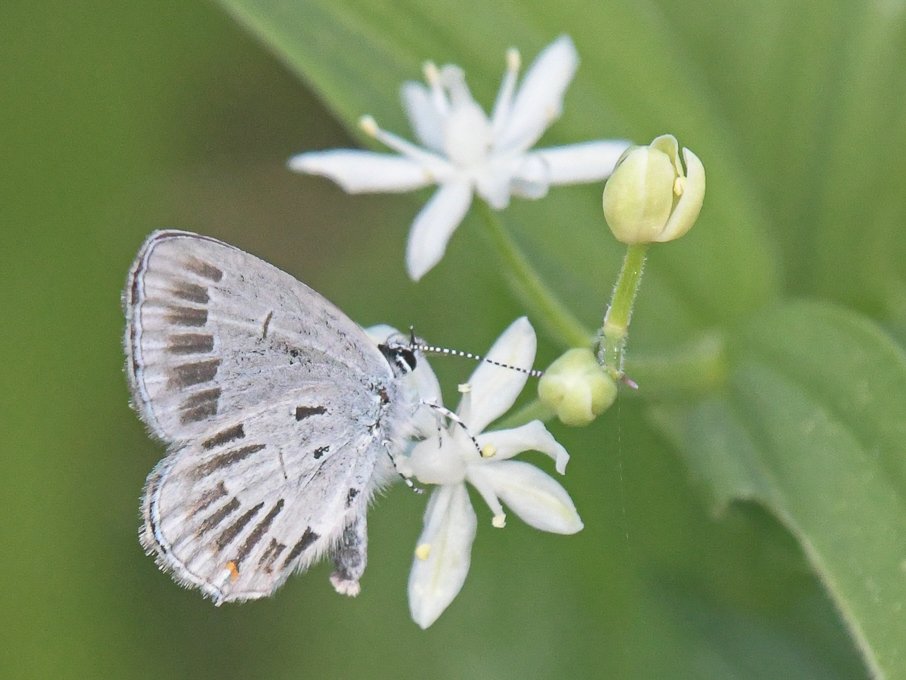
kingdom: Animalia
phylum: Arthropoda
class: Insecta
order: Lepidoptera
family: Lycaenidae
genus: Elkalyce
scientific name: Elkalyce amyntula
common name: Western Tailed-Blue
